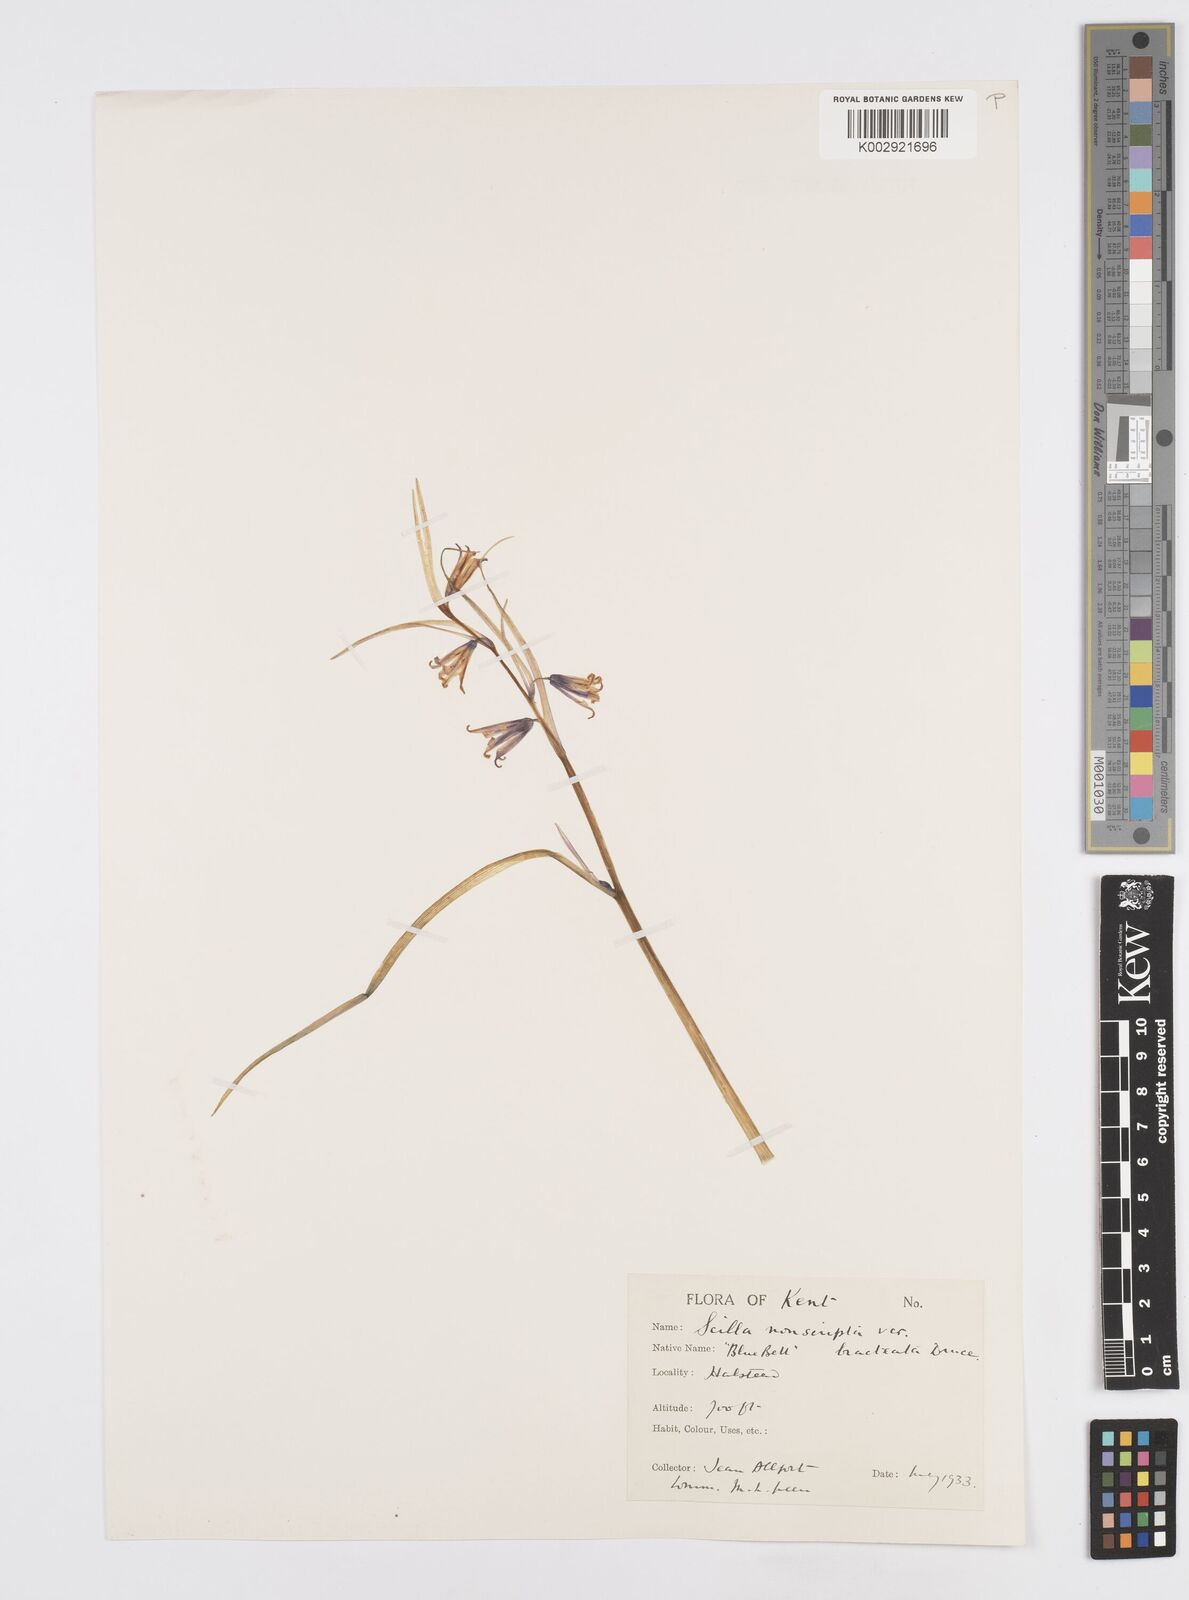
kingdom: Plantae
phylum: Tracheophyta
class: Liliopsida
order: Asparagales
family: Asparagaceae
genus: Hyacinthoides
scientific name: Hyacinthoides
